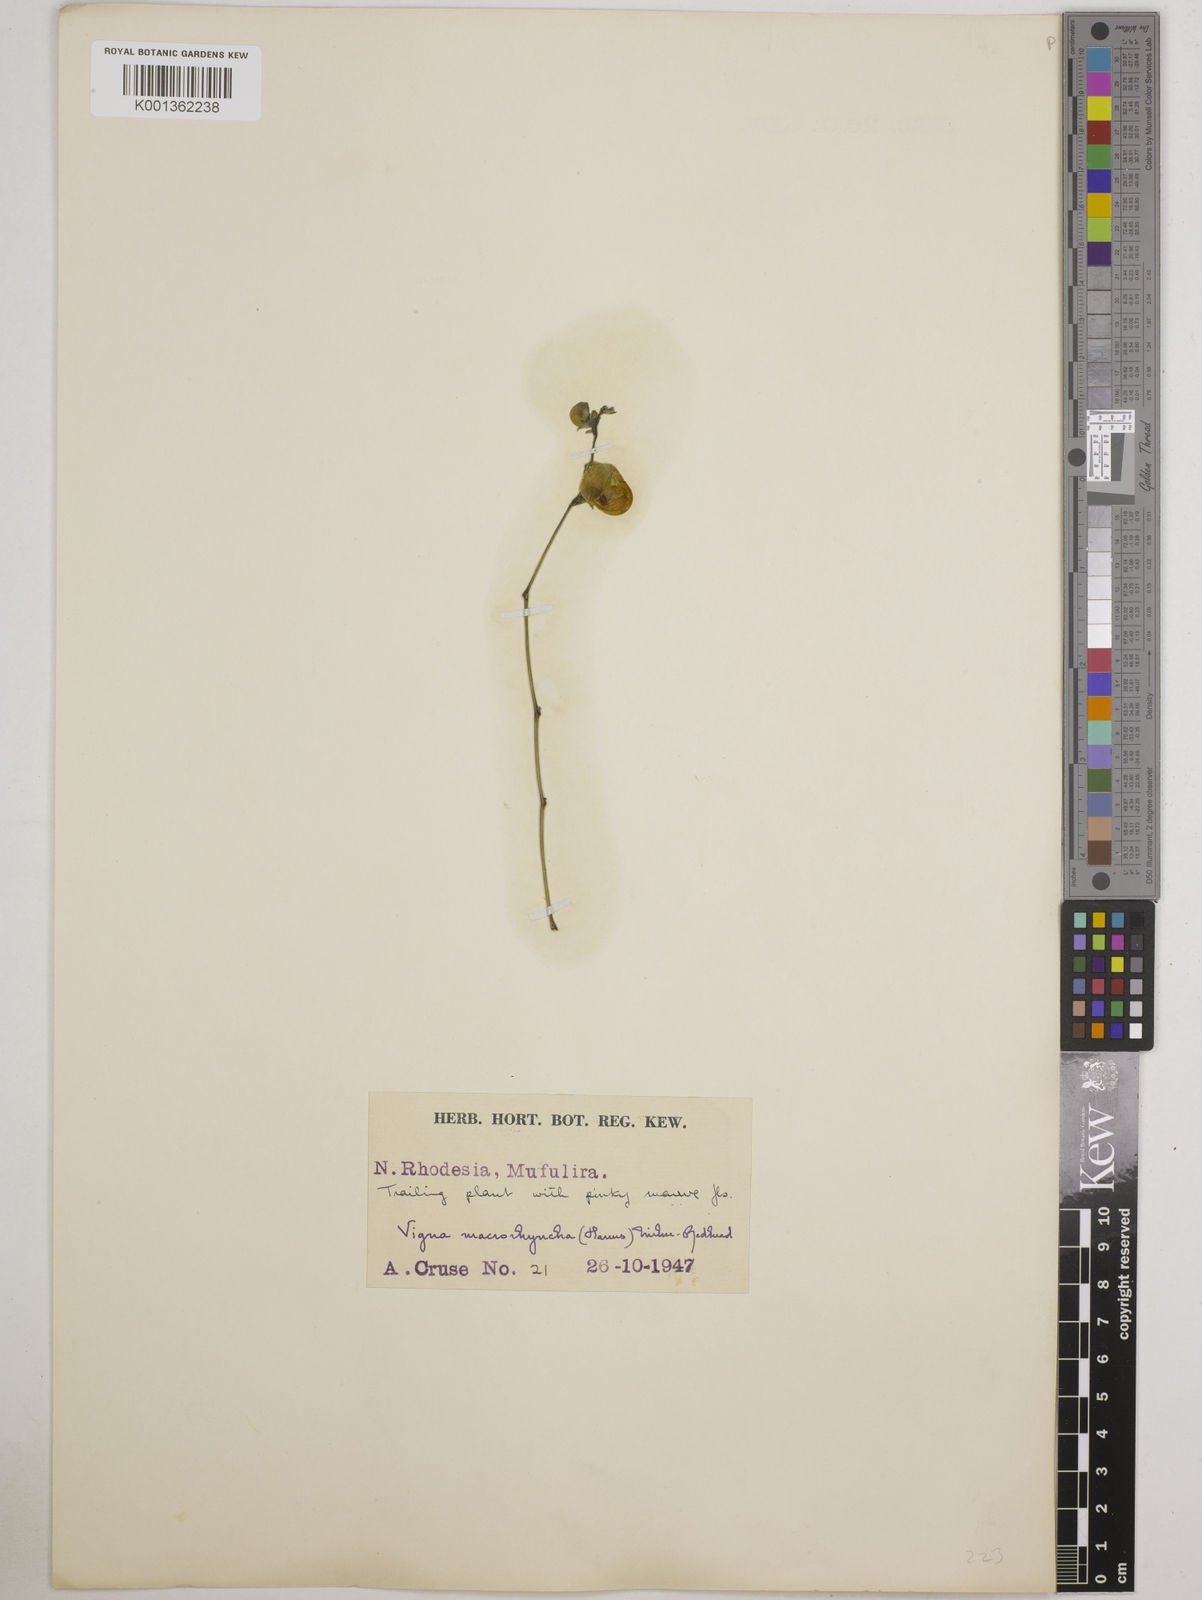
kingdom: Plantae
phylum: Tracheophyta
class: Magnoliopsida
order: Fabales
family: Fabaceae
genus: Wajira
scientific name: Wajira grahamiana
